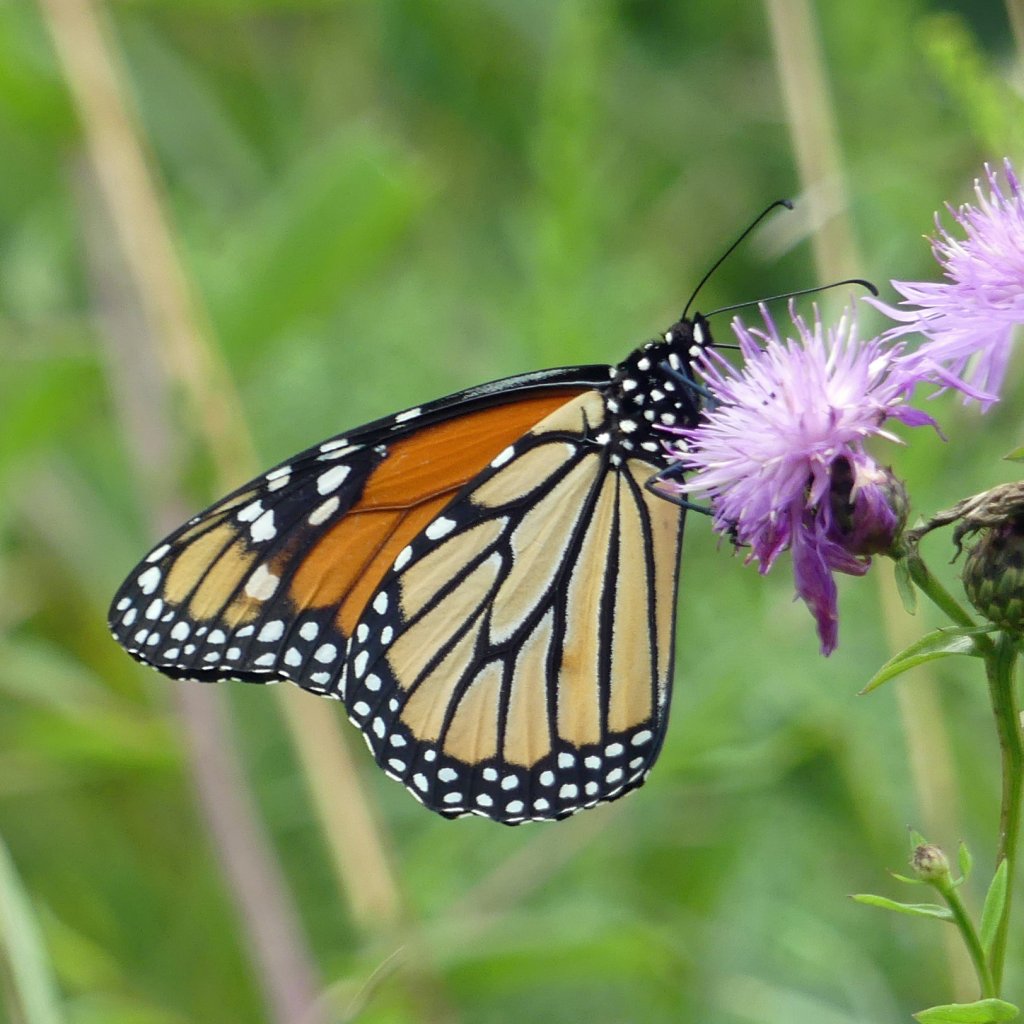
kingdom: Animalia
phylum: Arthropoda
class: Insecta
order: Lepidoptera
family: Nymphalidae
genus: Danaus
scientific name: Danaus plexippus
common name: Monarch
